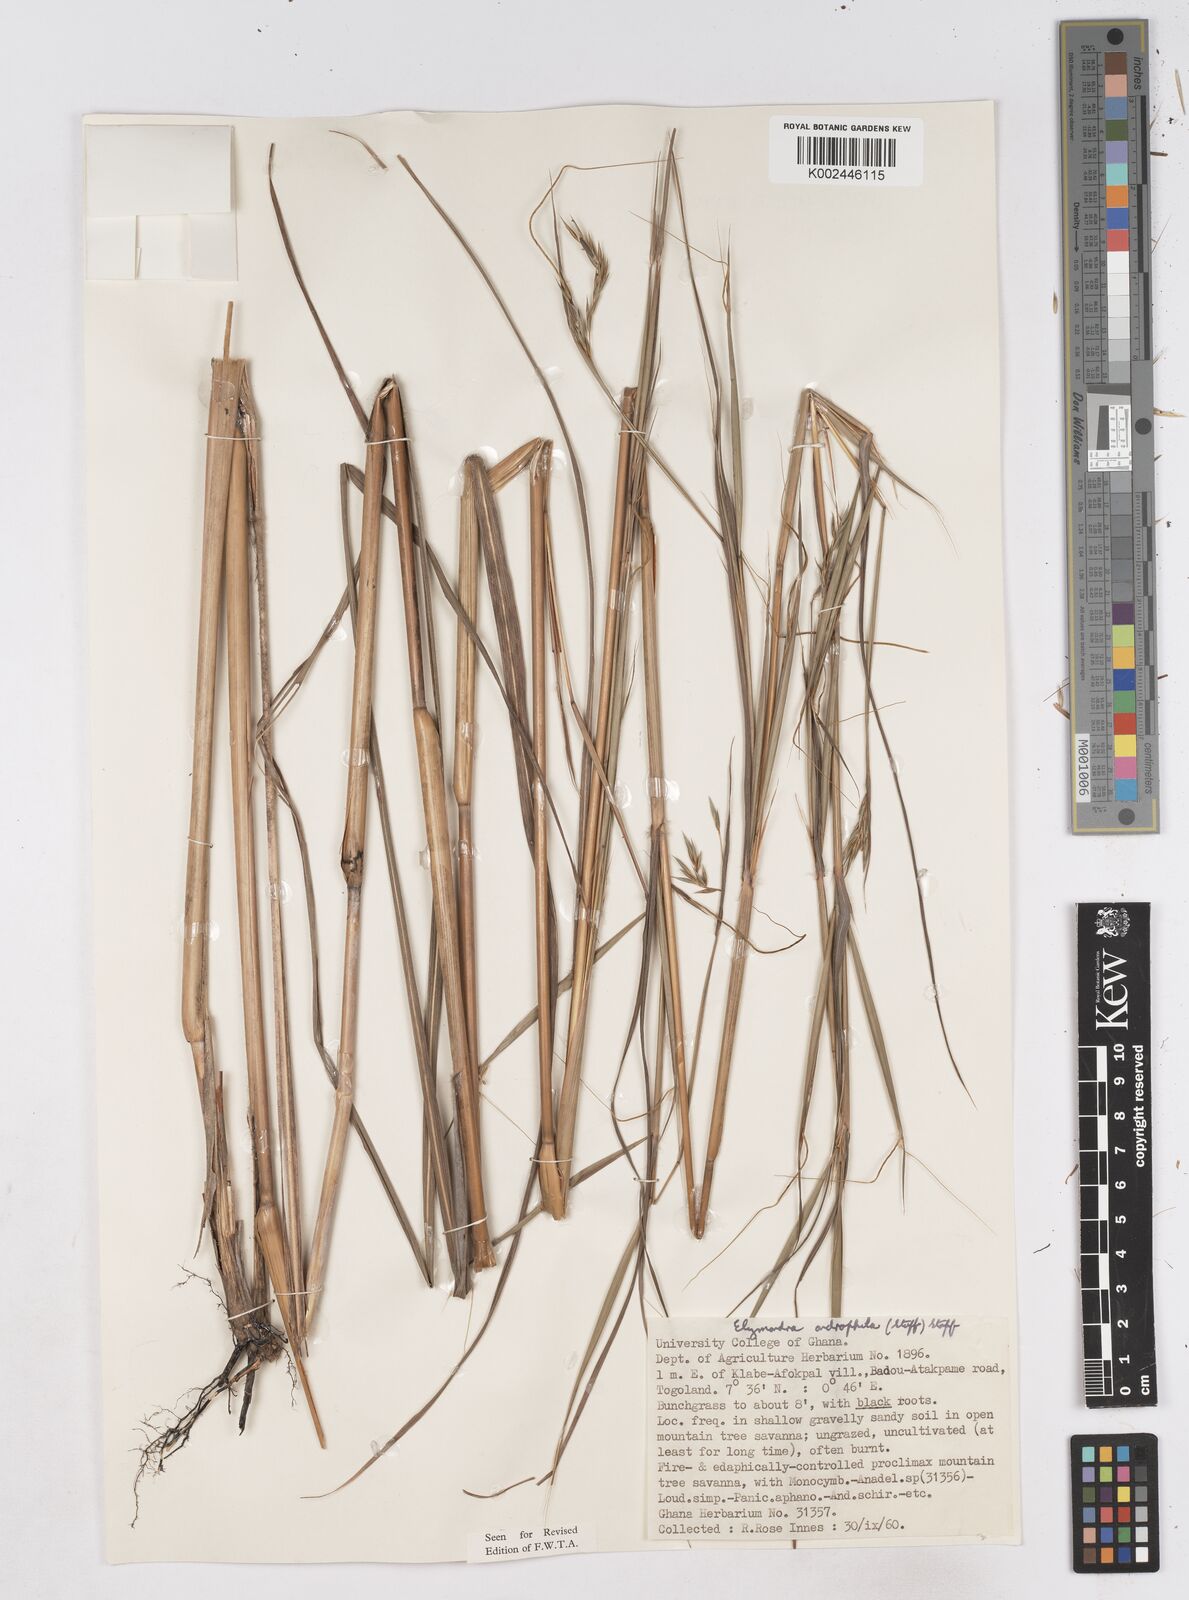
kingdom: Plantae
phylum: Tracheophyta
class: Liliopsida
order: Poales
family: Poaceae
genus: Elymandra
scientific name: Elymandra androphila
